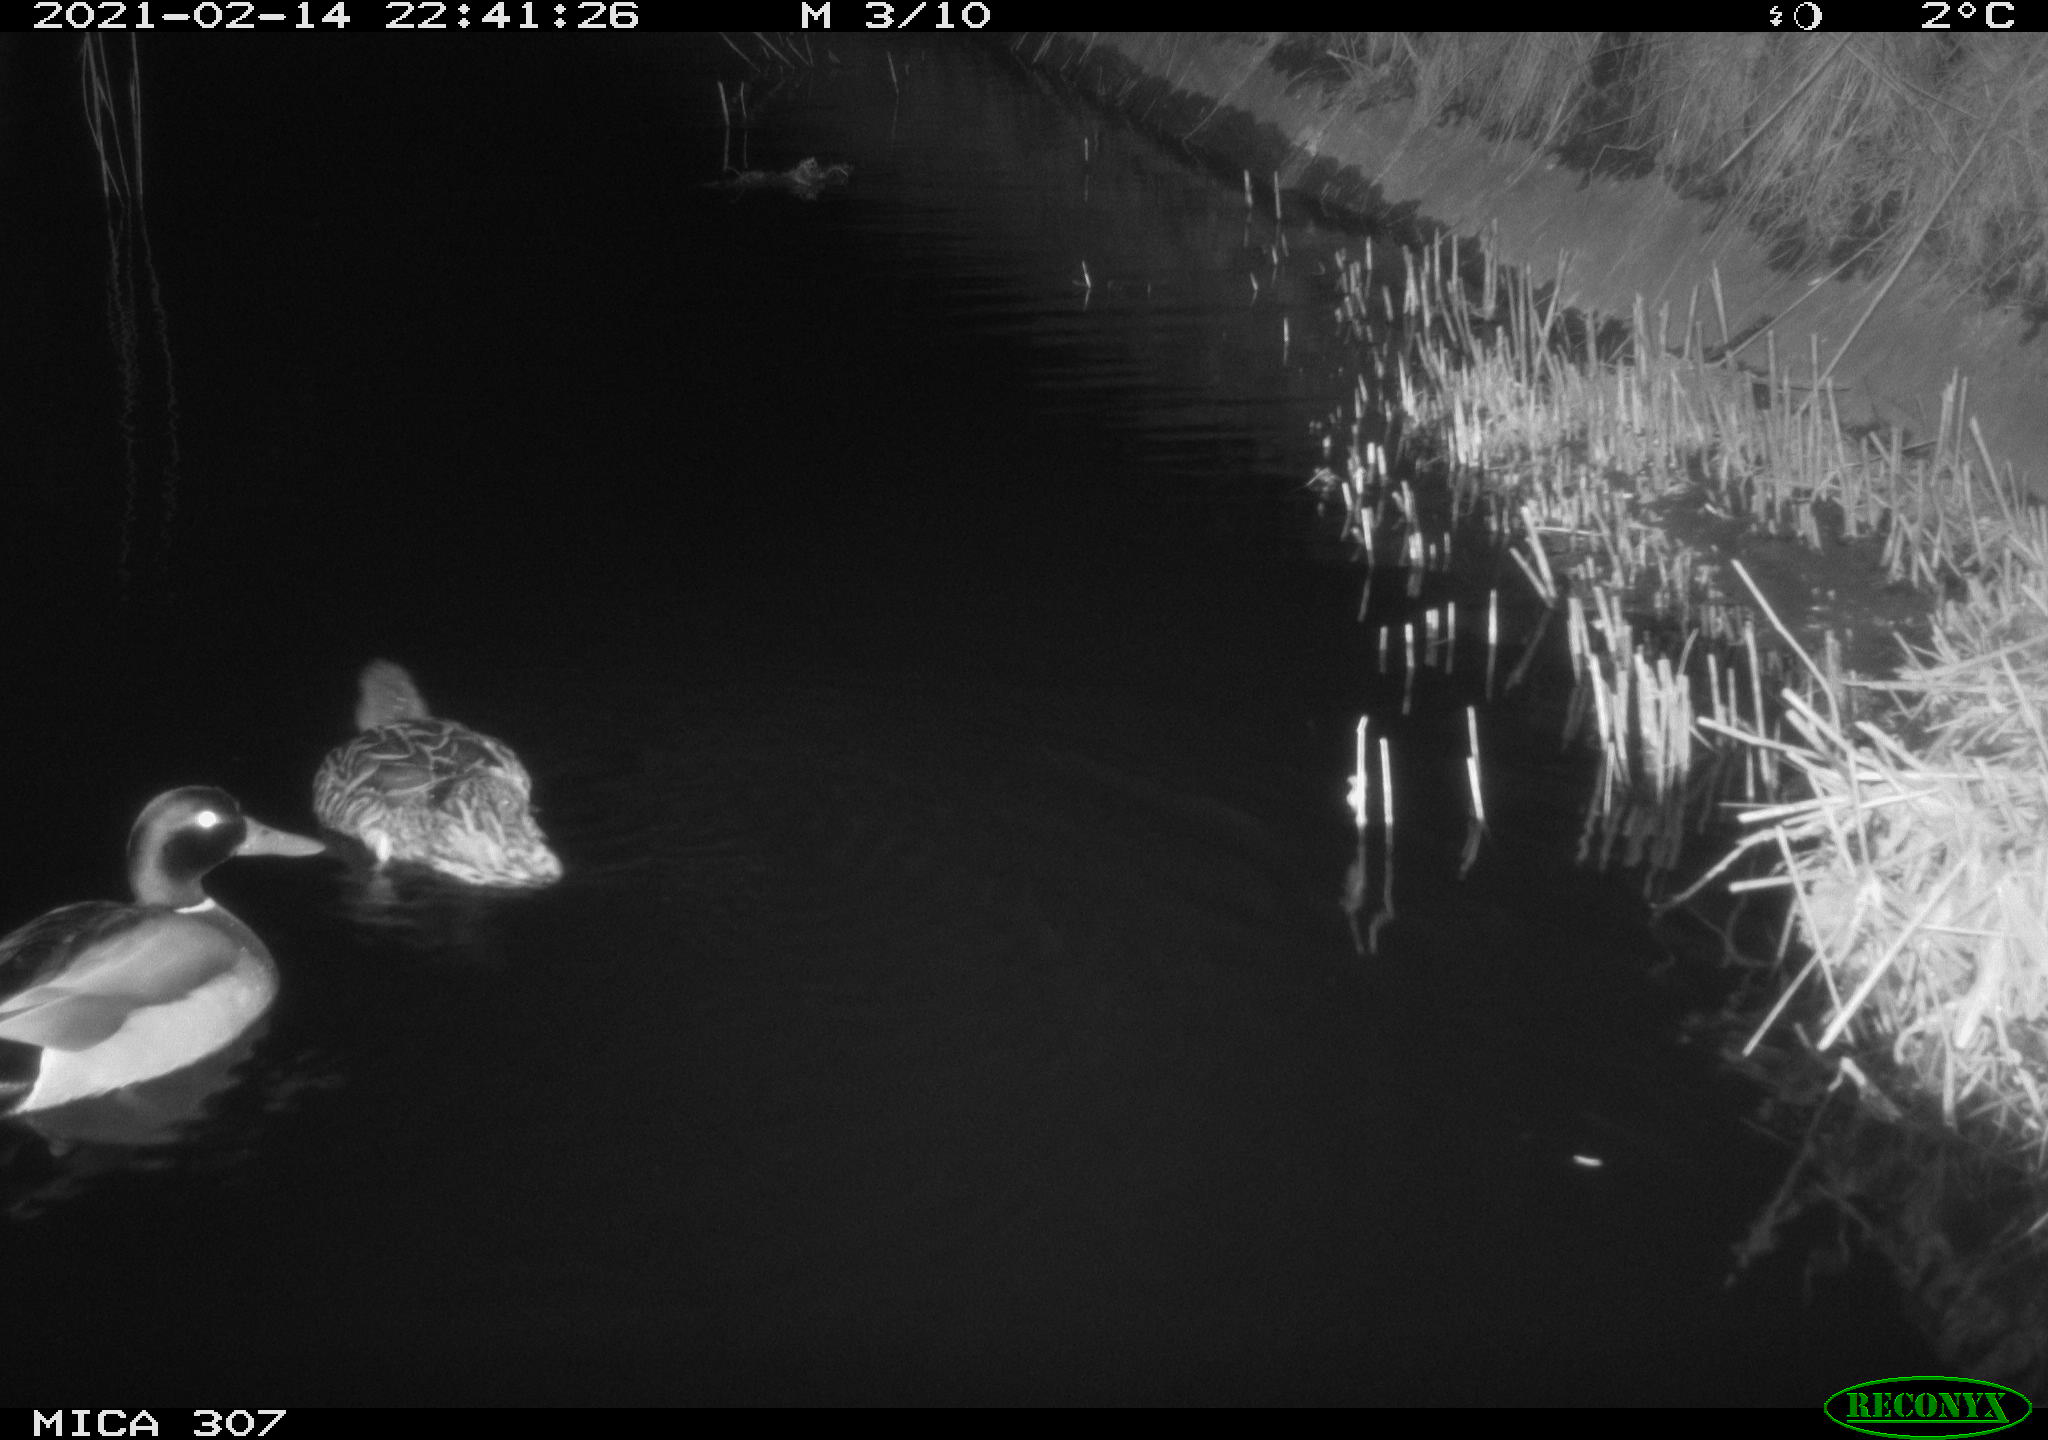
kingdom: Animalia
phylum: Chordata
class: Aves
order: Anseriformes
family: Anatidae
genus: Anas
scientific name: Anas platyrhynchos
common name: Mallard
